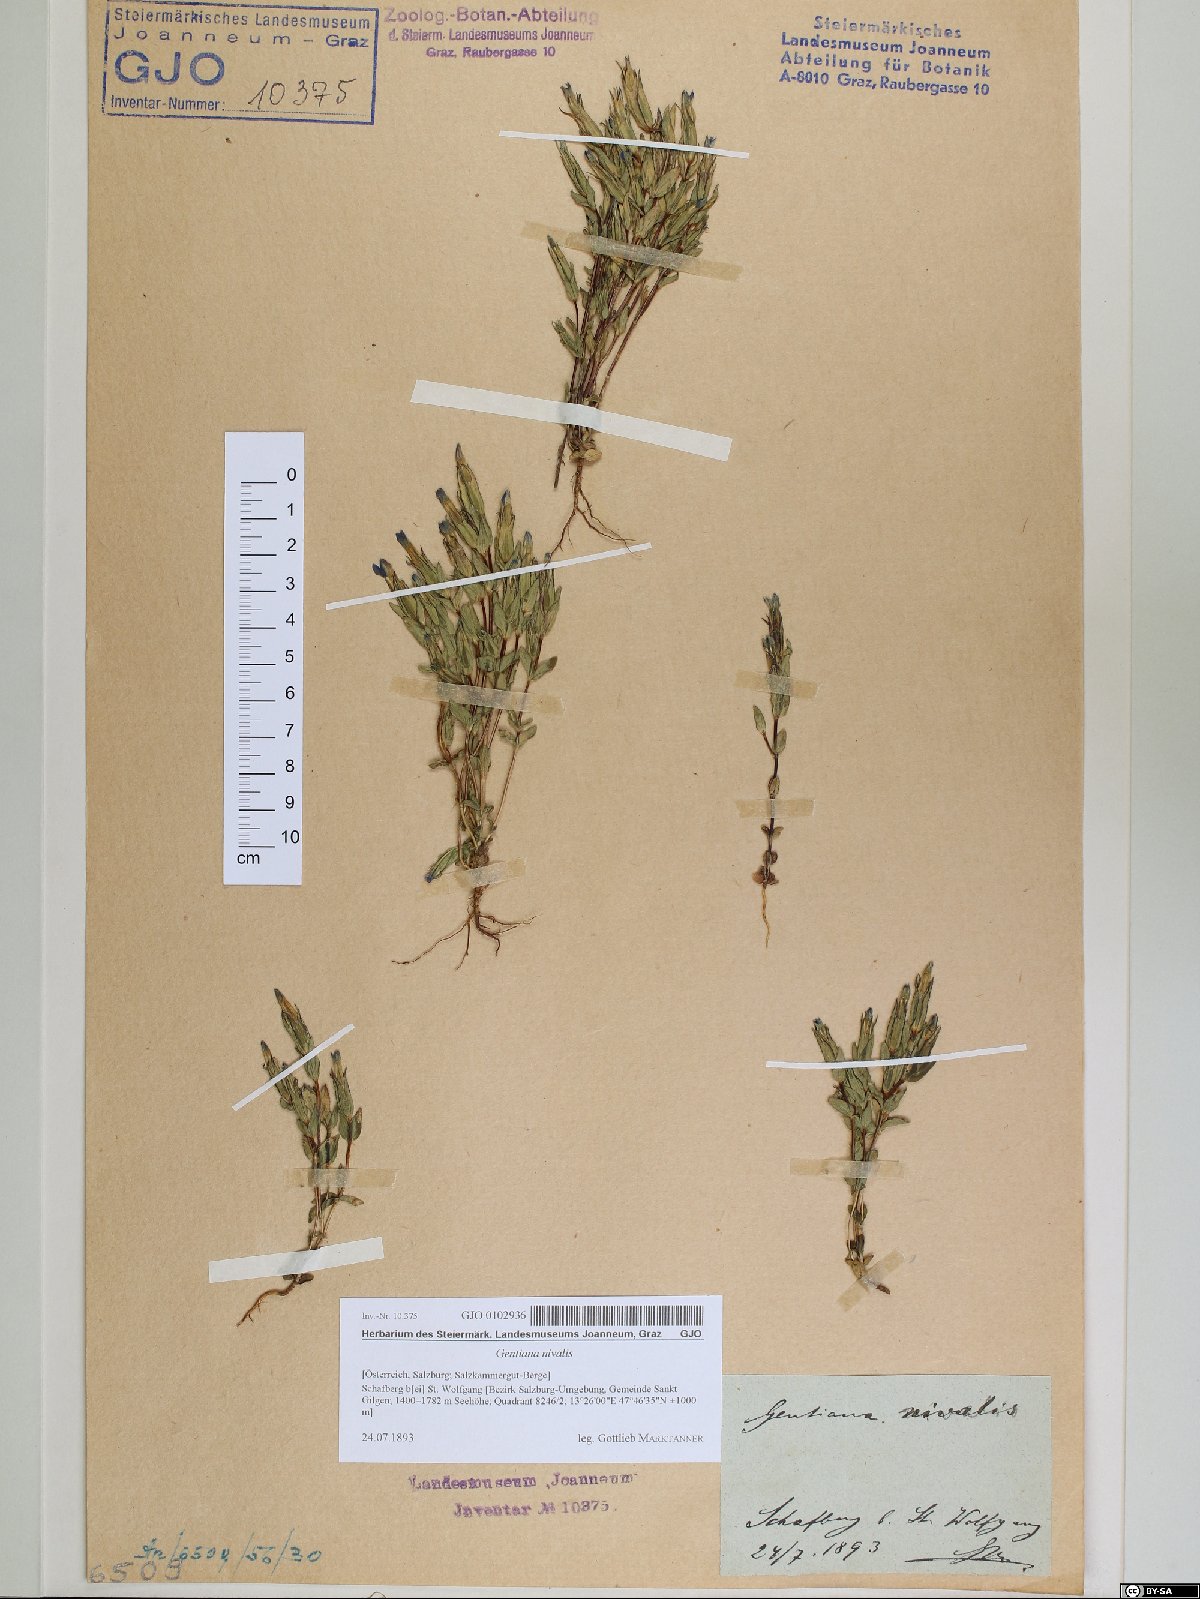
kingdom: Plantae
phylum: Tracheophyta
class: Magnoliopsida
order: Gentianales
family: Gentianaceae
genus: Gentiana
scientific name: Gentiana nivalis
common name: Alpine gentian
